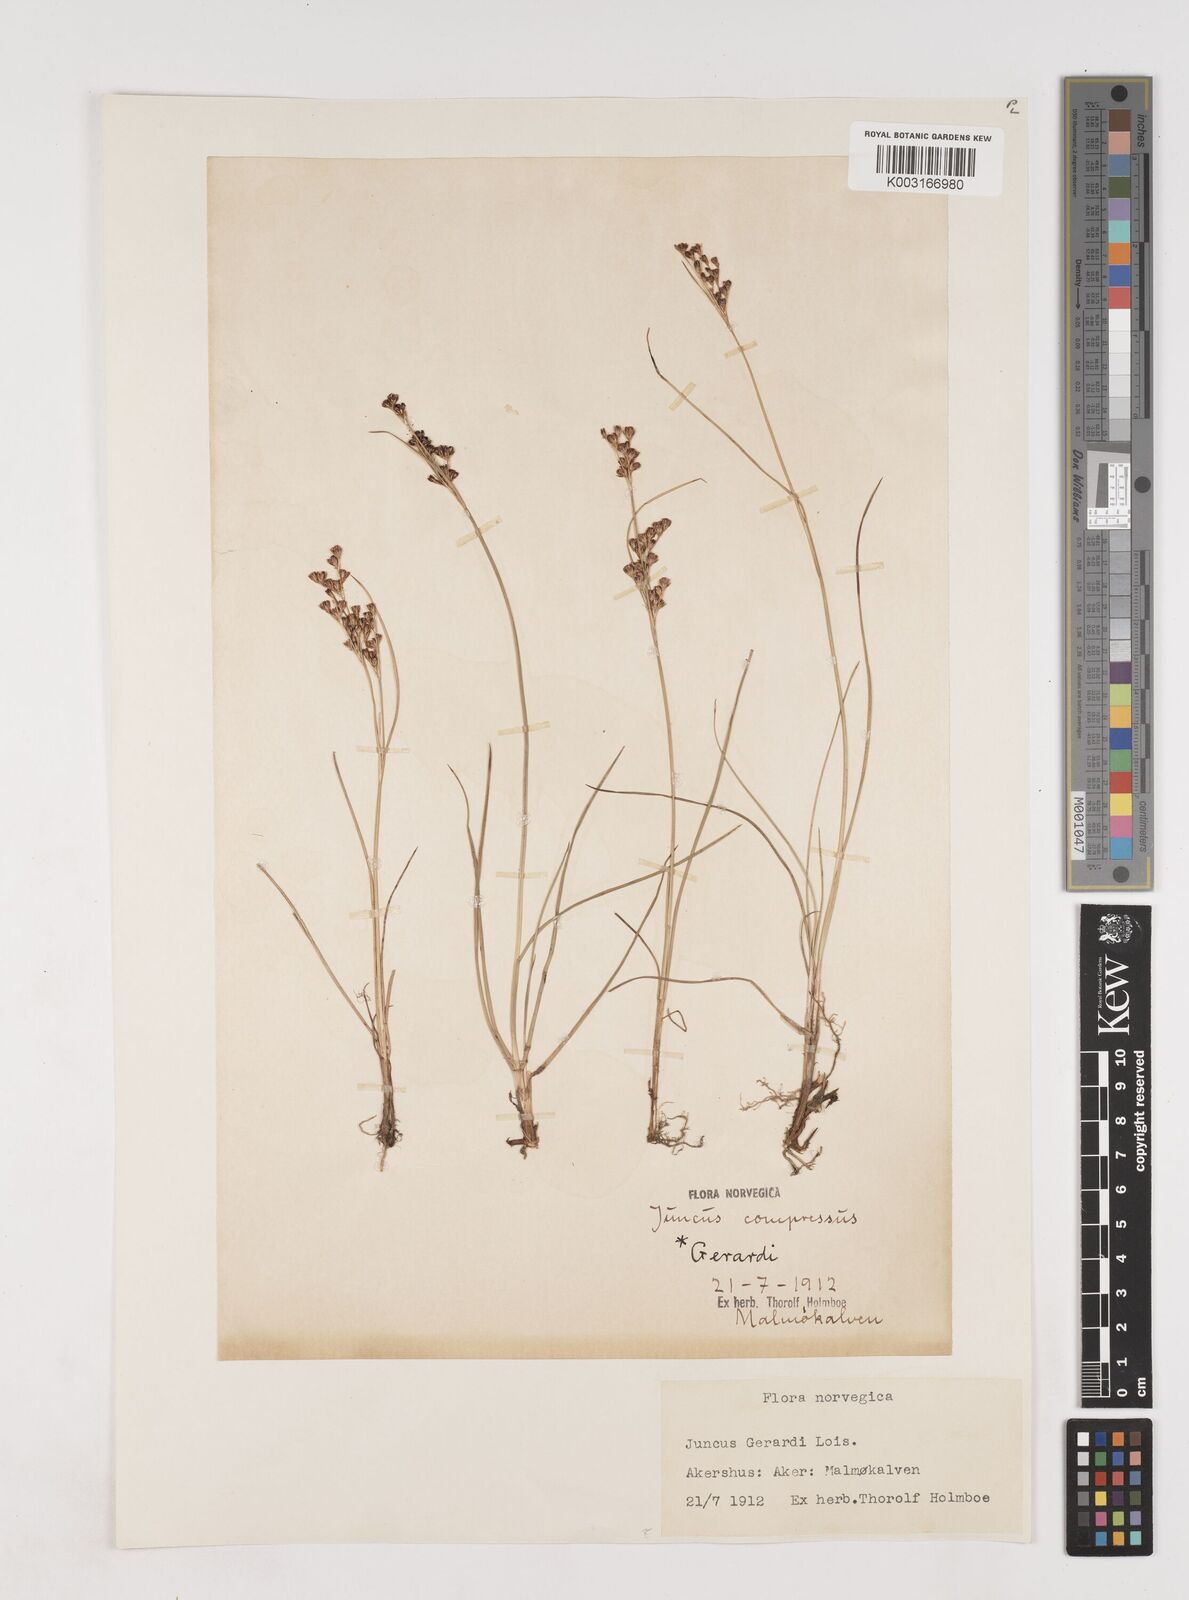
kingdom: Plantae
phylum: Tracheophyta
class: Liliopsida
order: Poales
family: Juncaceae
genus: Juncus
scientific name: Juncus gerardi
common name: Saltmarsh rush
